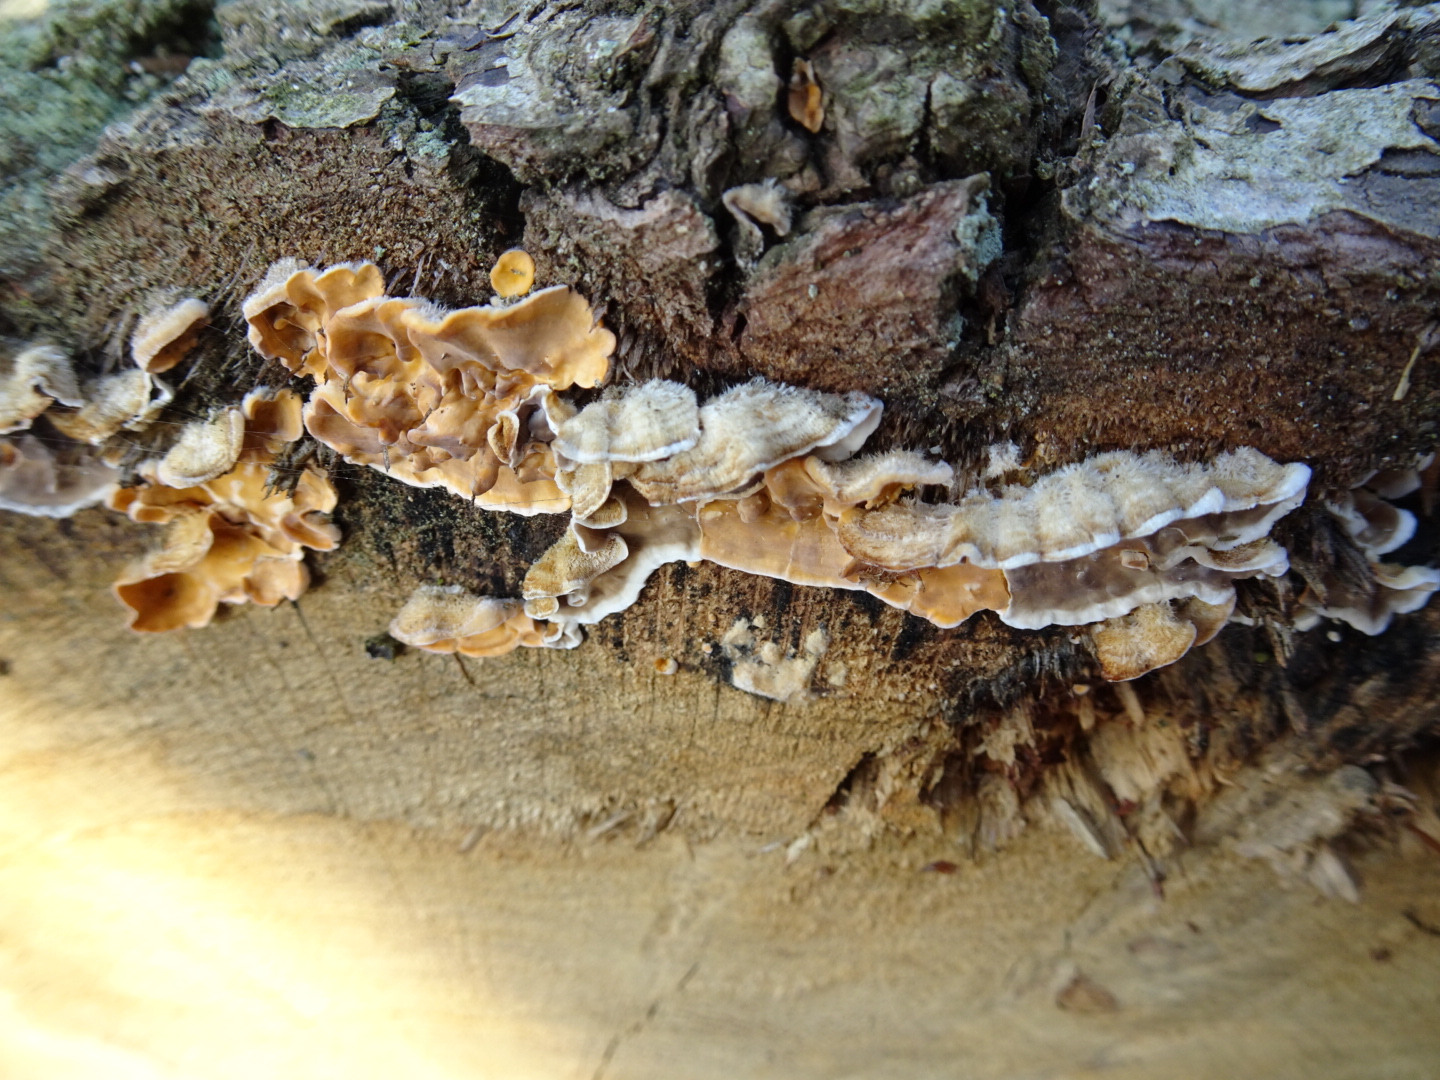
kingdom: Fungi
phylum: Basidiomycota
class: Agaricomycetes
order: Russulales
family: Stereaceae
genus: Stereum
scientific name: Stereum hirsutum
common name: håret lædersvamp
